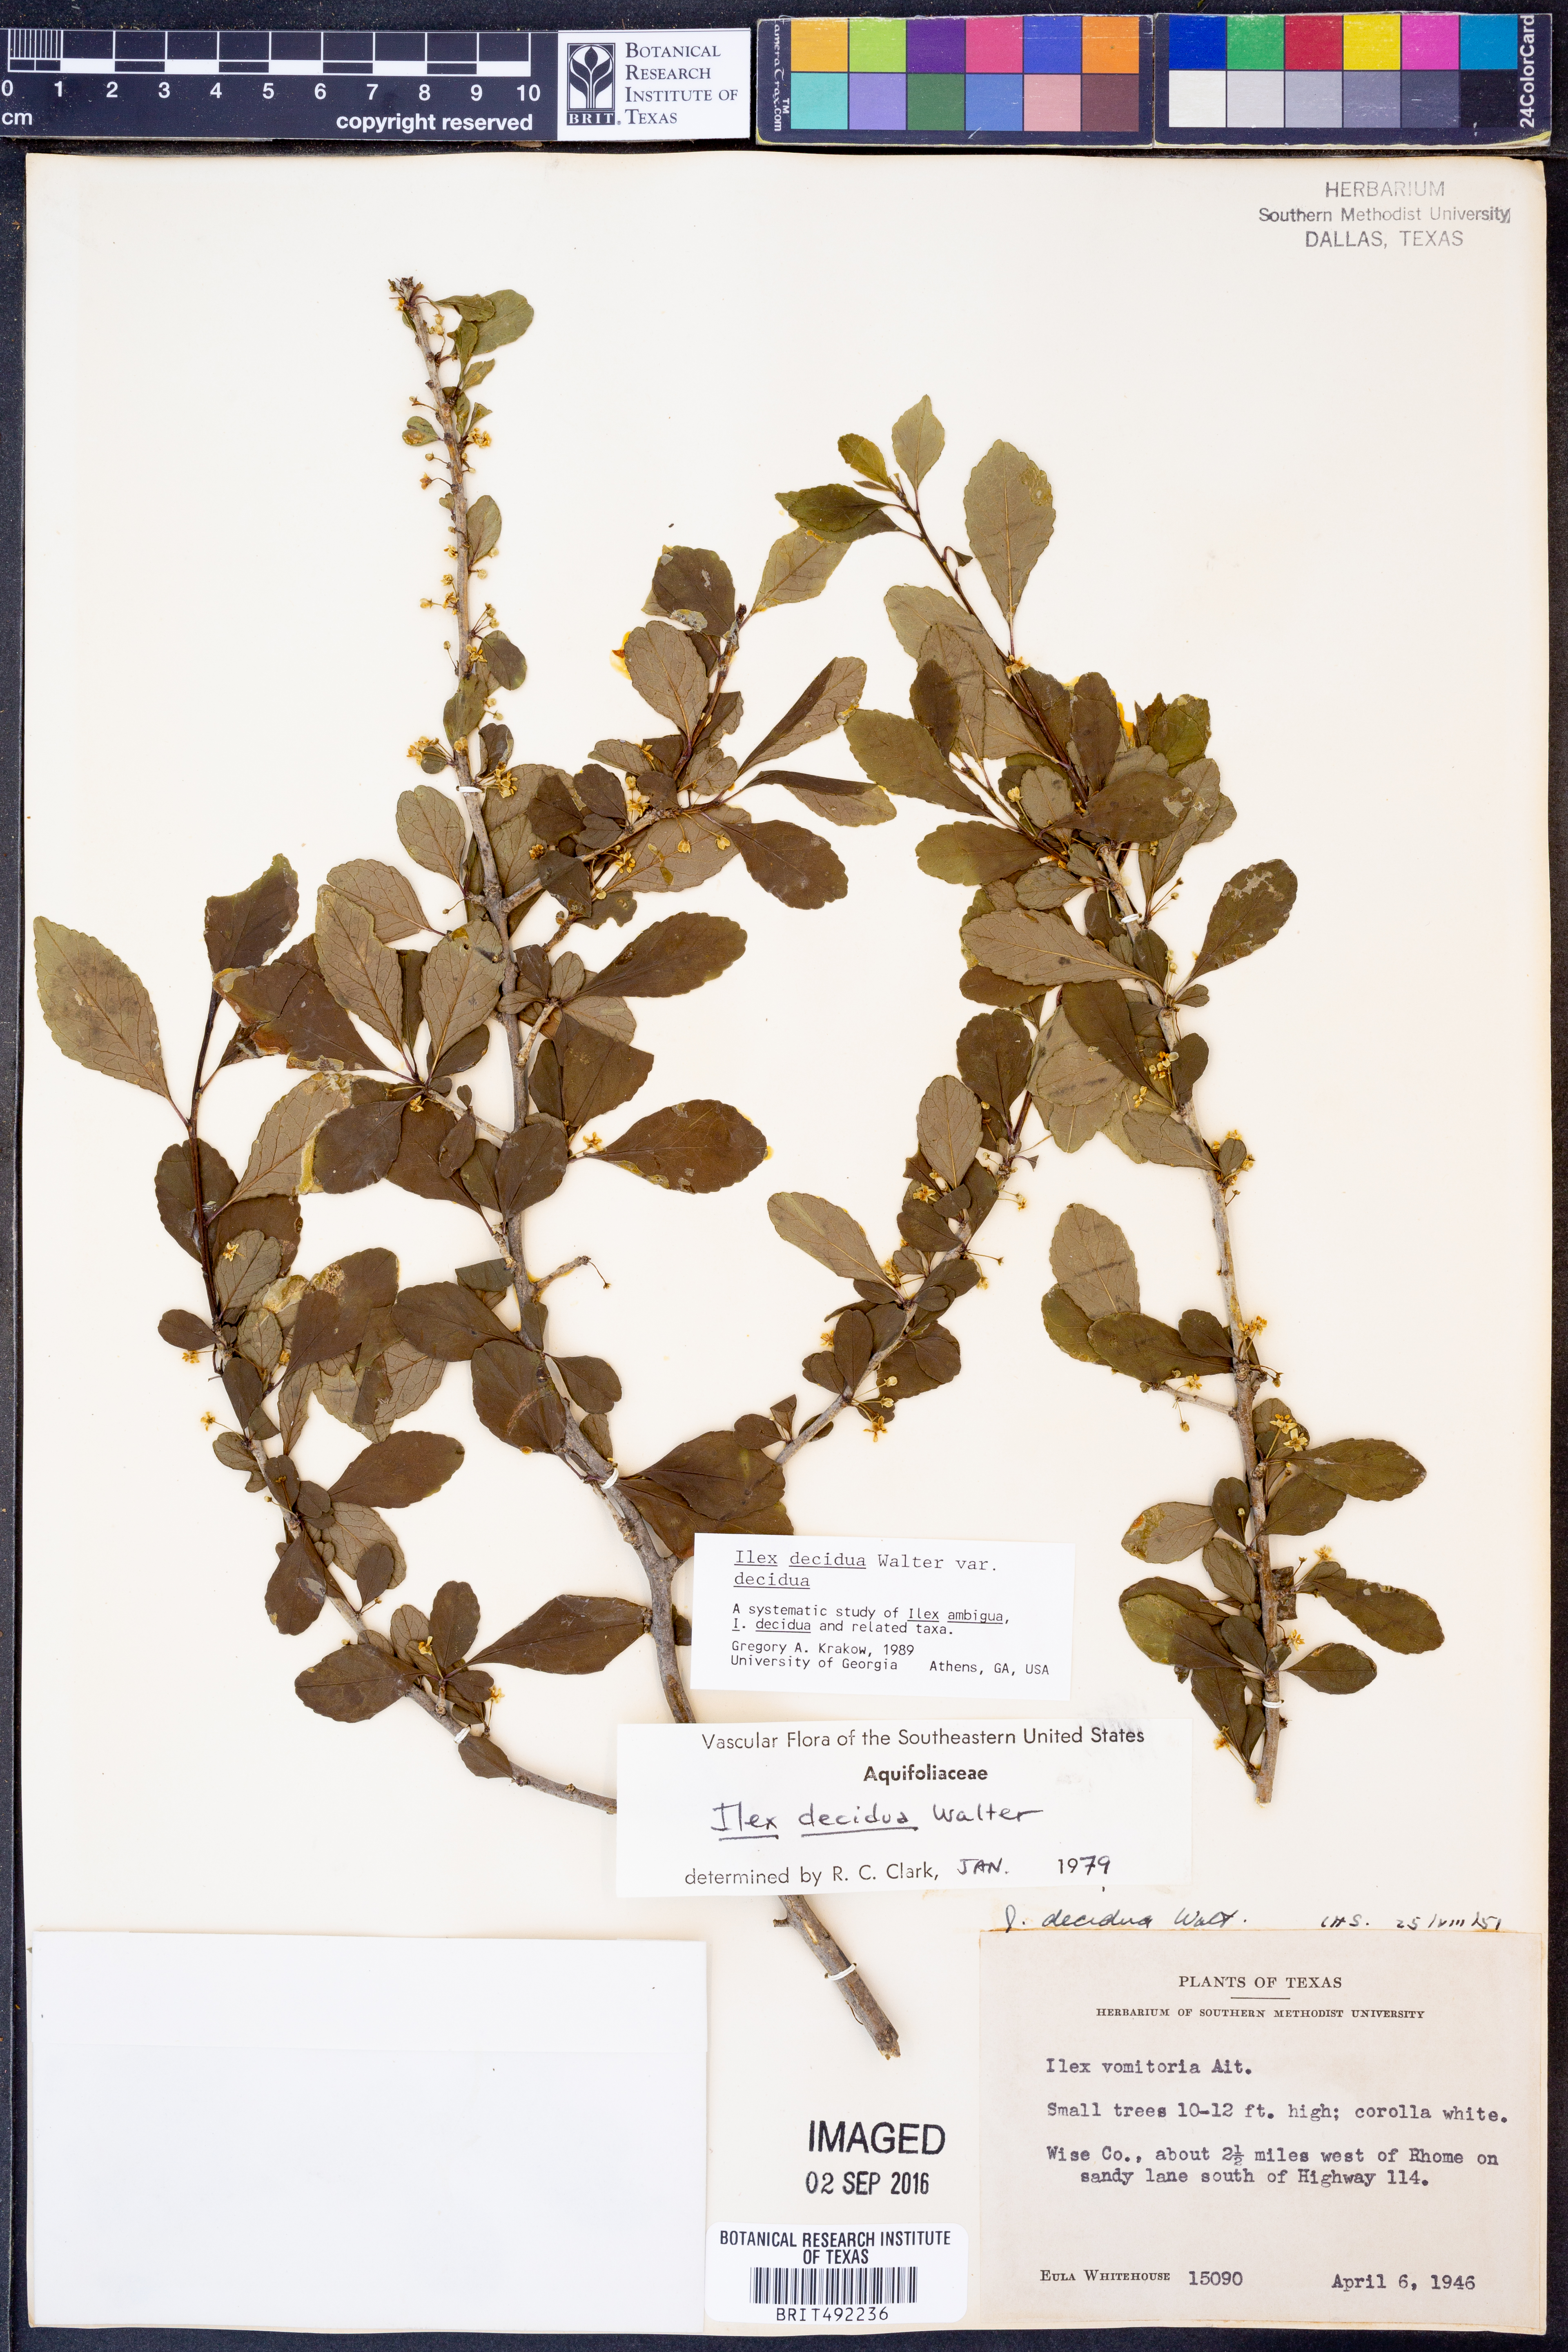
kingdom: Plantae
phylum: Tracheophyta
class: Magnoliopsida
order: Aquifoliales
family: Aquifoliaceae
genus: Ilex
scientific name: Ilex decidua
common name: Possum-haw
